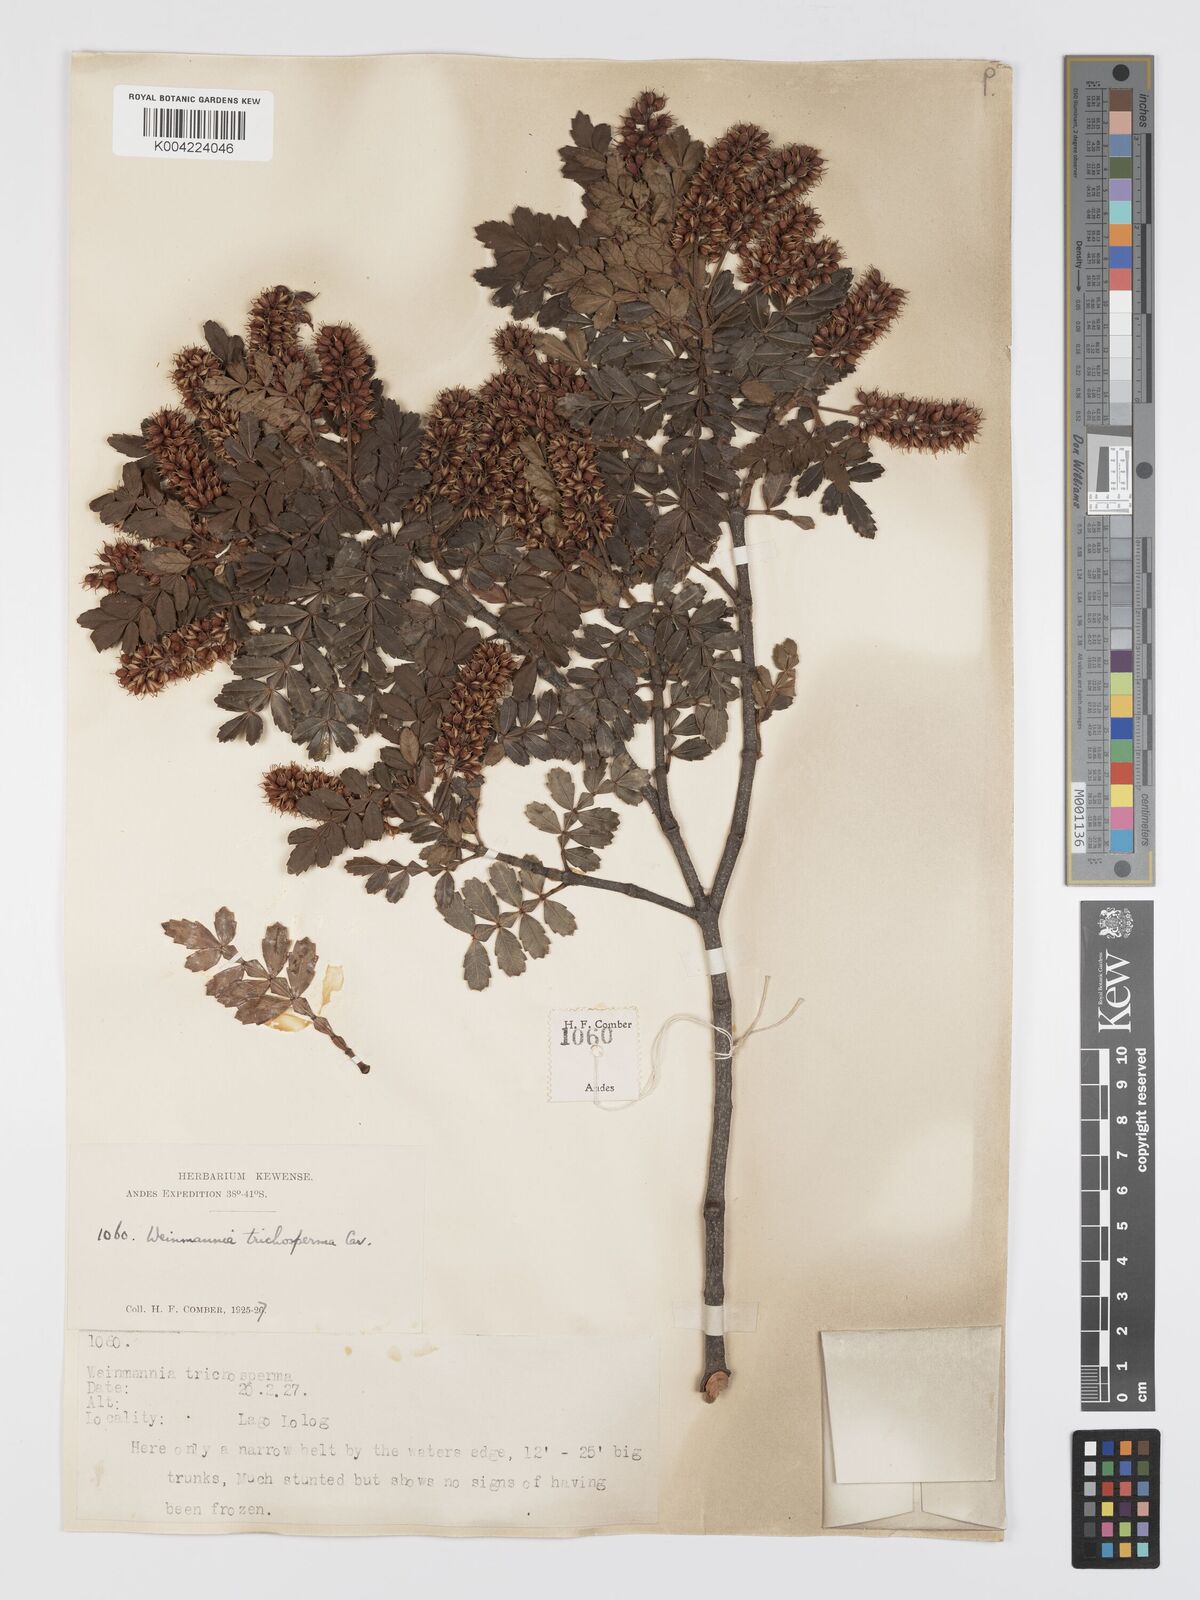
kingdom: Plantae
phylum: Tracheophyta
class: Magnoliopsida
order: Oxalidales
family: Cunoniaceae
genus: Weinmannia
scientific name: Weinmannia trichosperma
